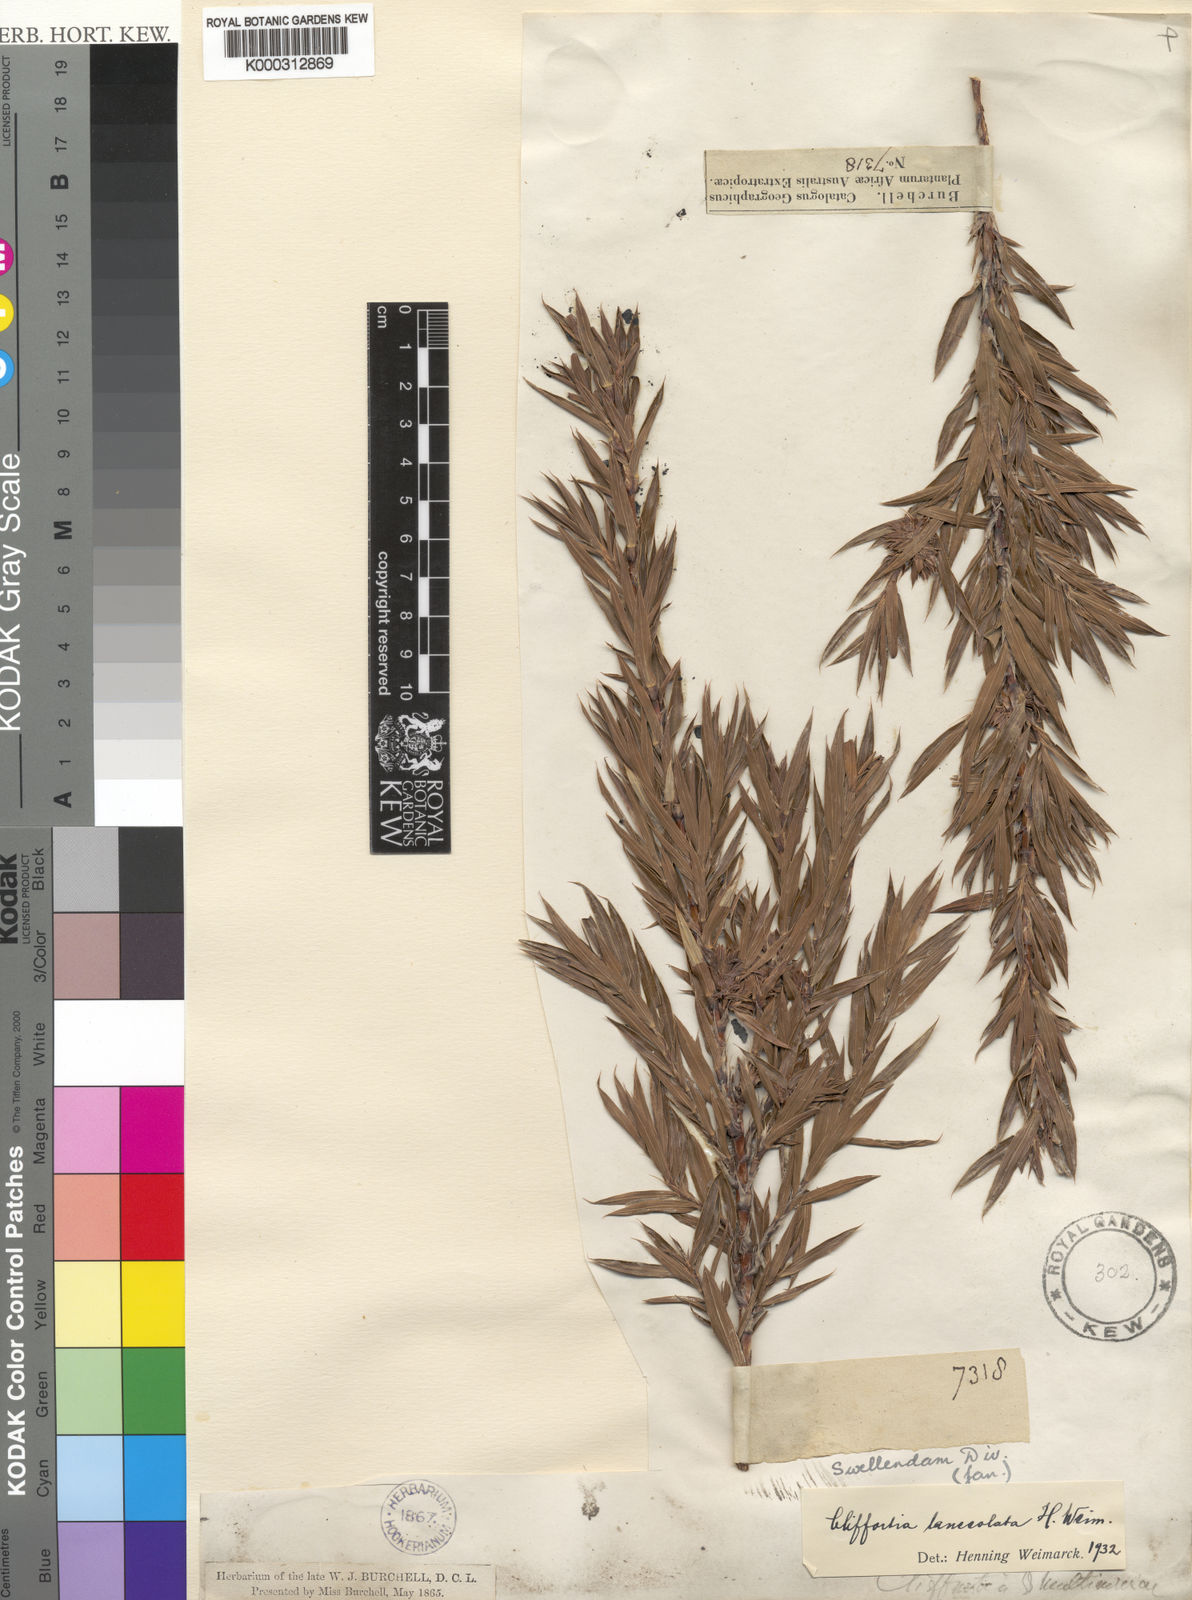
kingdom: Plantae
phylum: Tracheophyta
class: Magnoliopsida
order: Rosales
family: Rosaceae
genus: Cliffortia
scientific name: Cliffortia lanceolata
